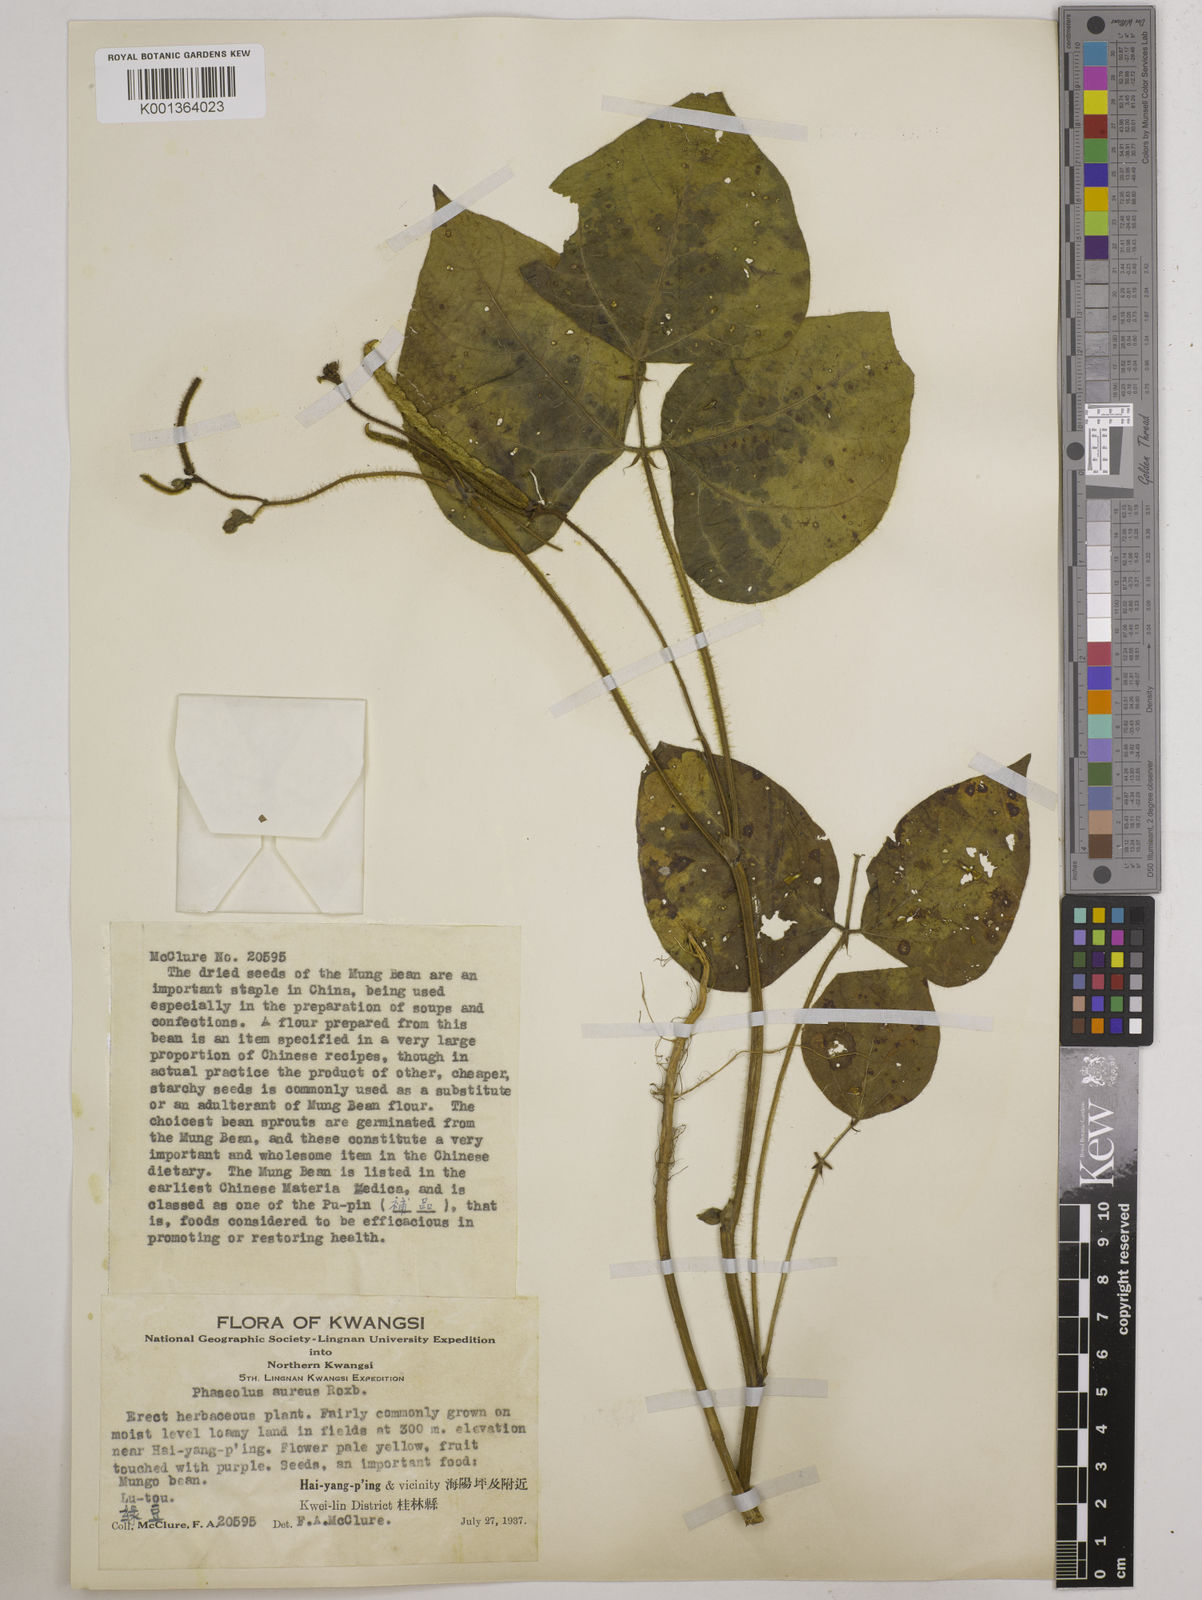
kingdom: Plantae
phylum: Tracheophyta
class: Magnoliopsida
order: Fabales
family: Fabaceae
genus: Vigna
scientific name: Vigna radiata
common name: Mung-bean
